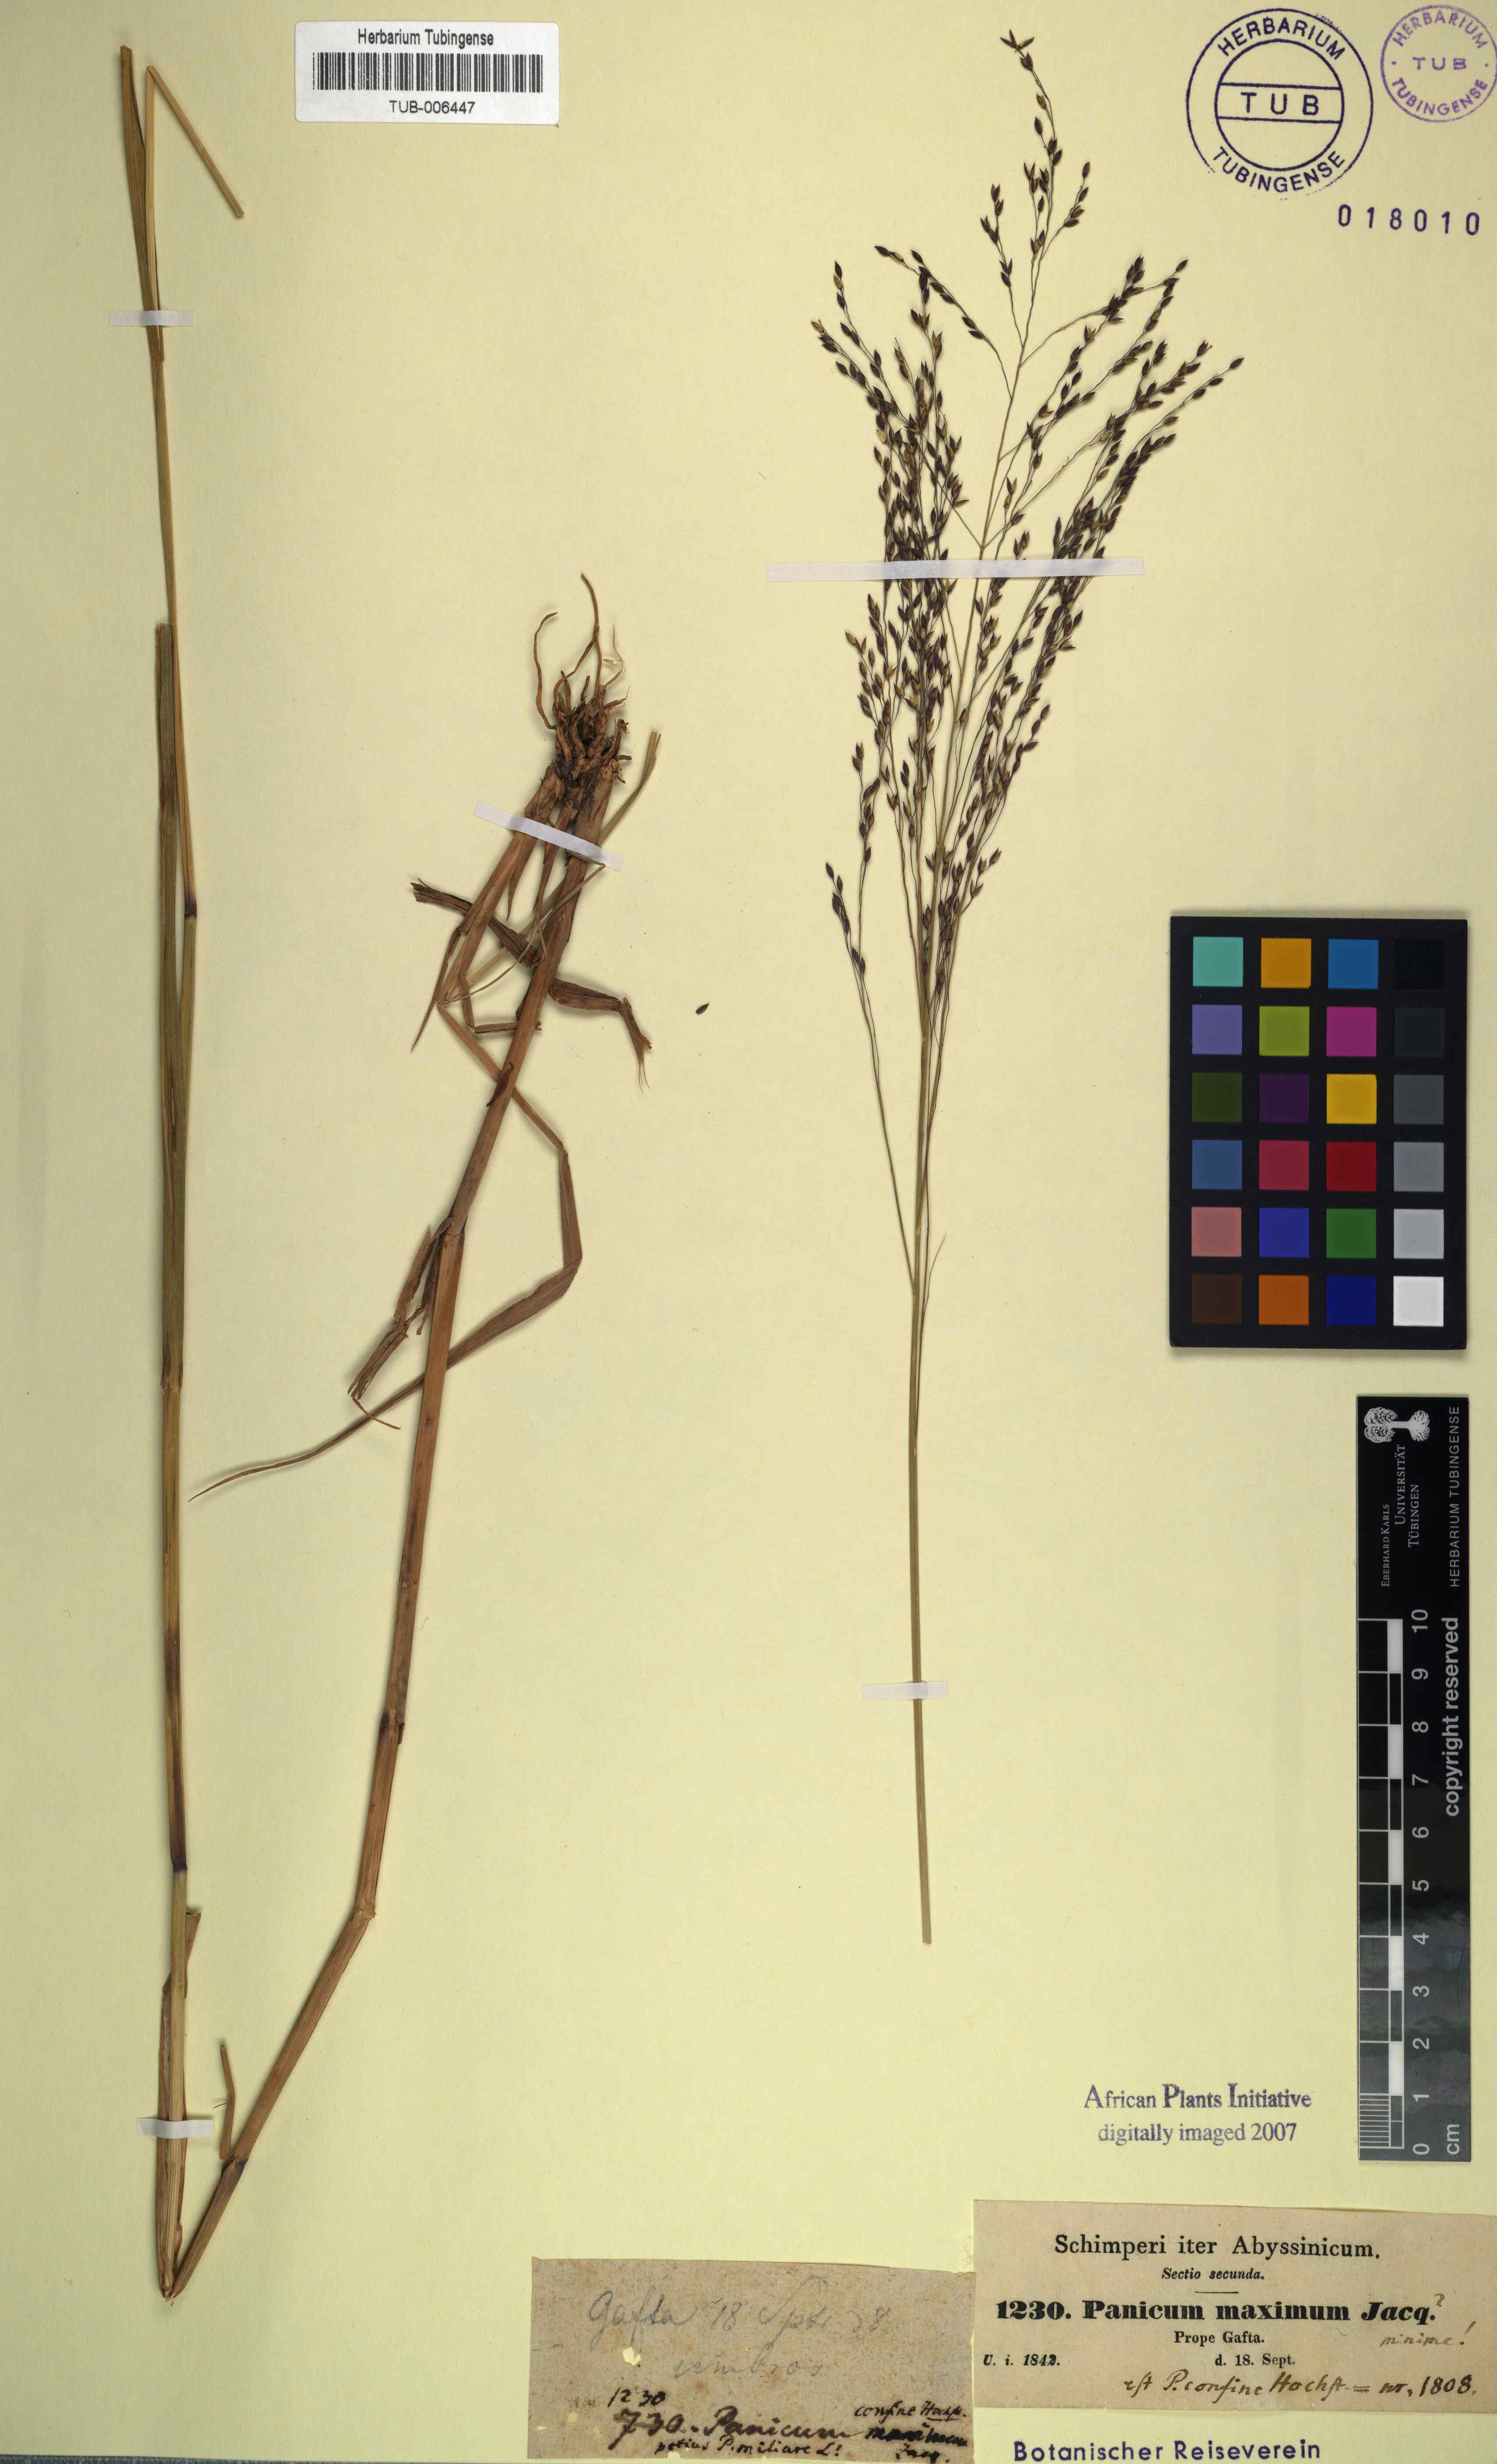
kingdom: Plantae
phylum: Tracheophyta
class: Liliopsida
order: Poales
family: Poaceae
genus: Megathyrsus
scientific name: Megathyrsus maximus
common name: Guineagrass
